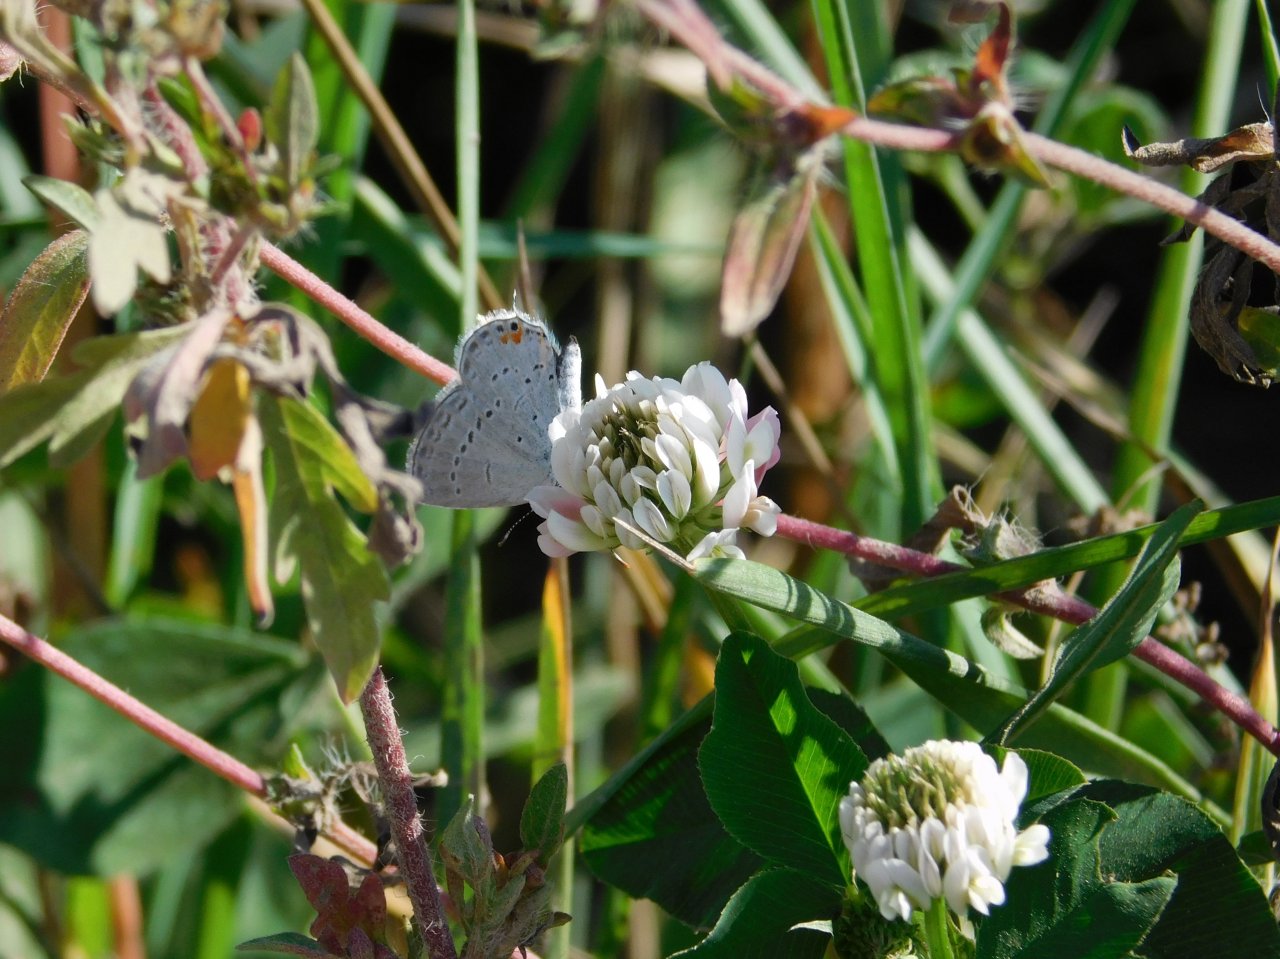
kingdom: Animalia
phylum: Arthropoda
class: Insecta
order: Lepidoptera
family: Lycaenidae
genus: Elkalyce
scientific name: Elkalyce comyntas
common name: Eastern Tailed-Blue
